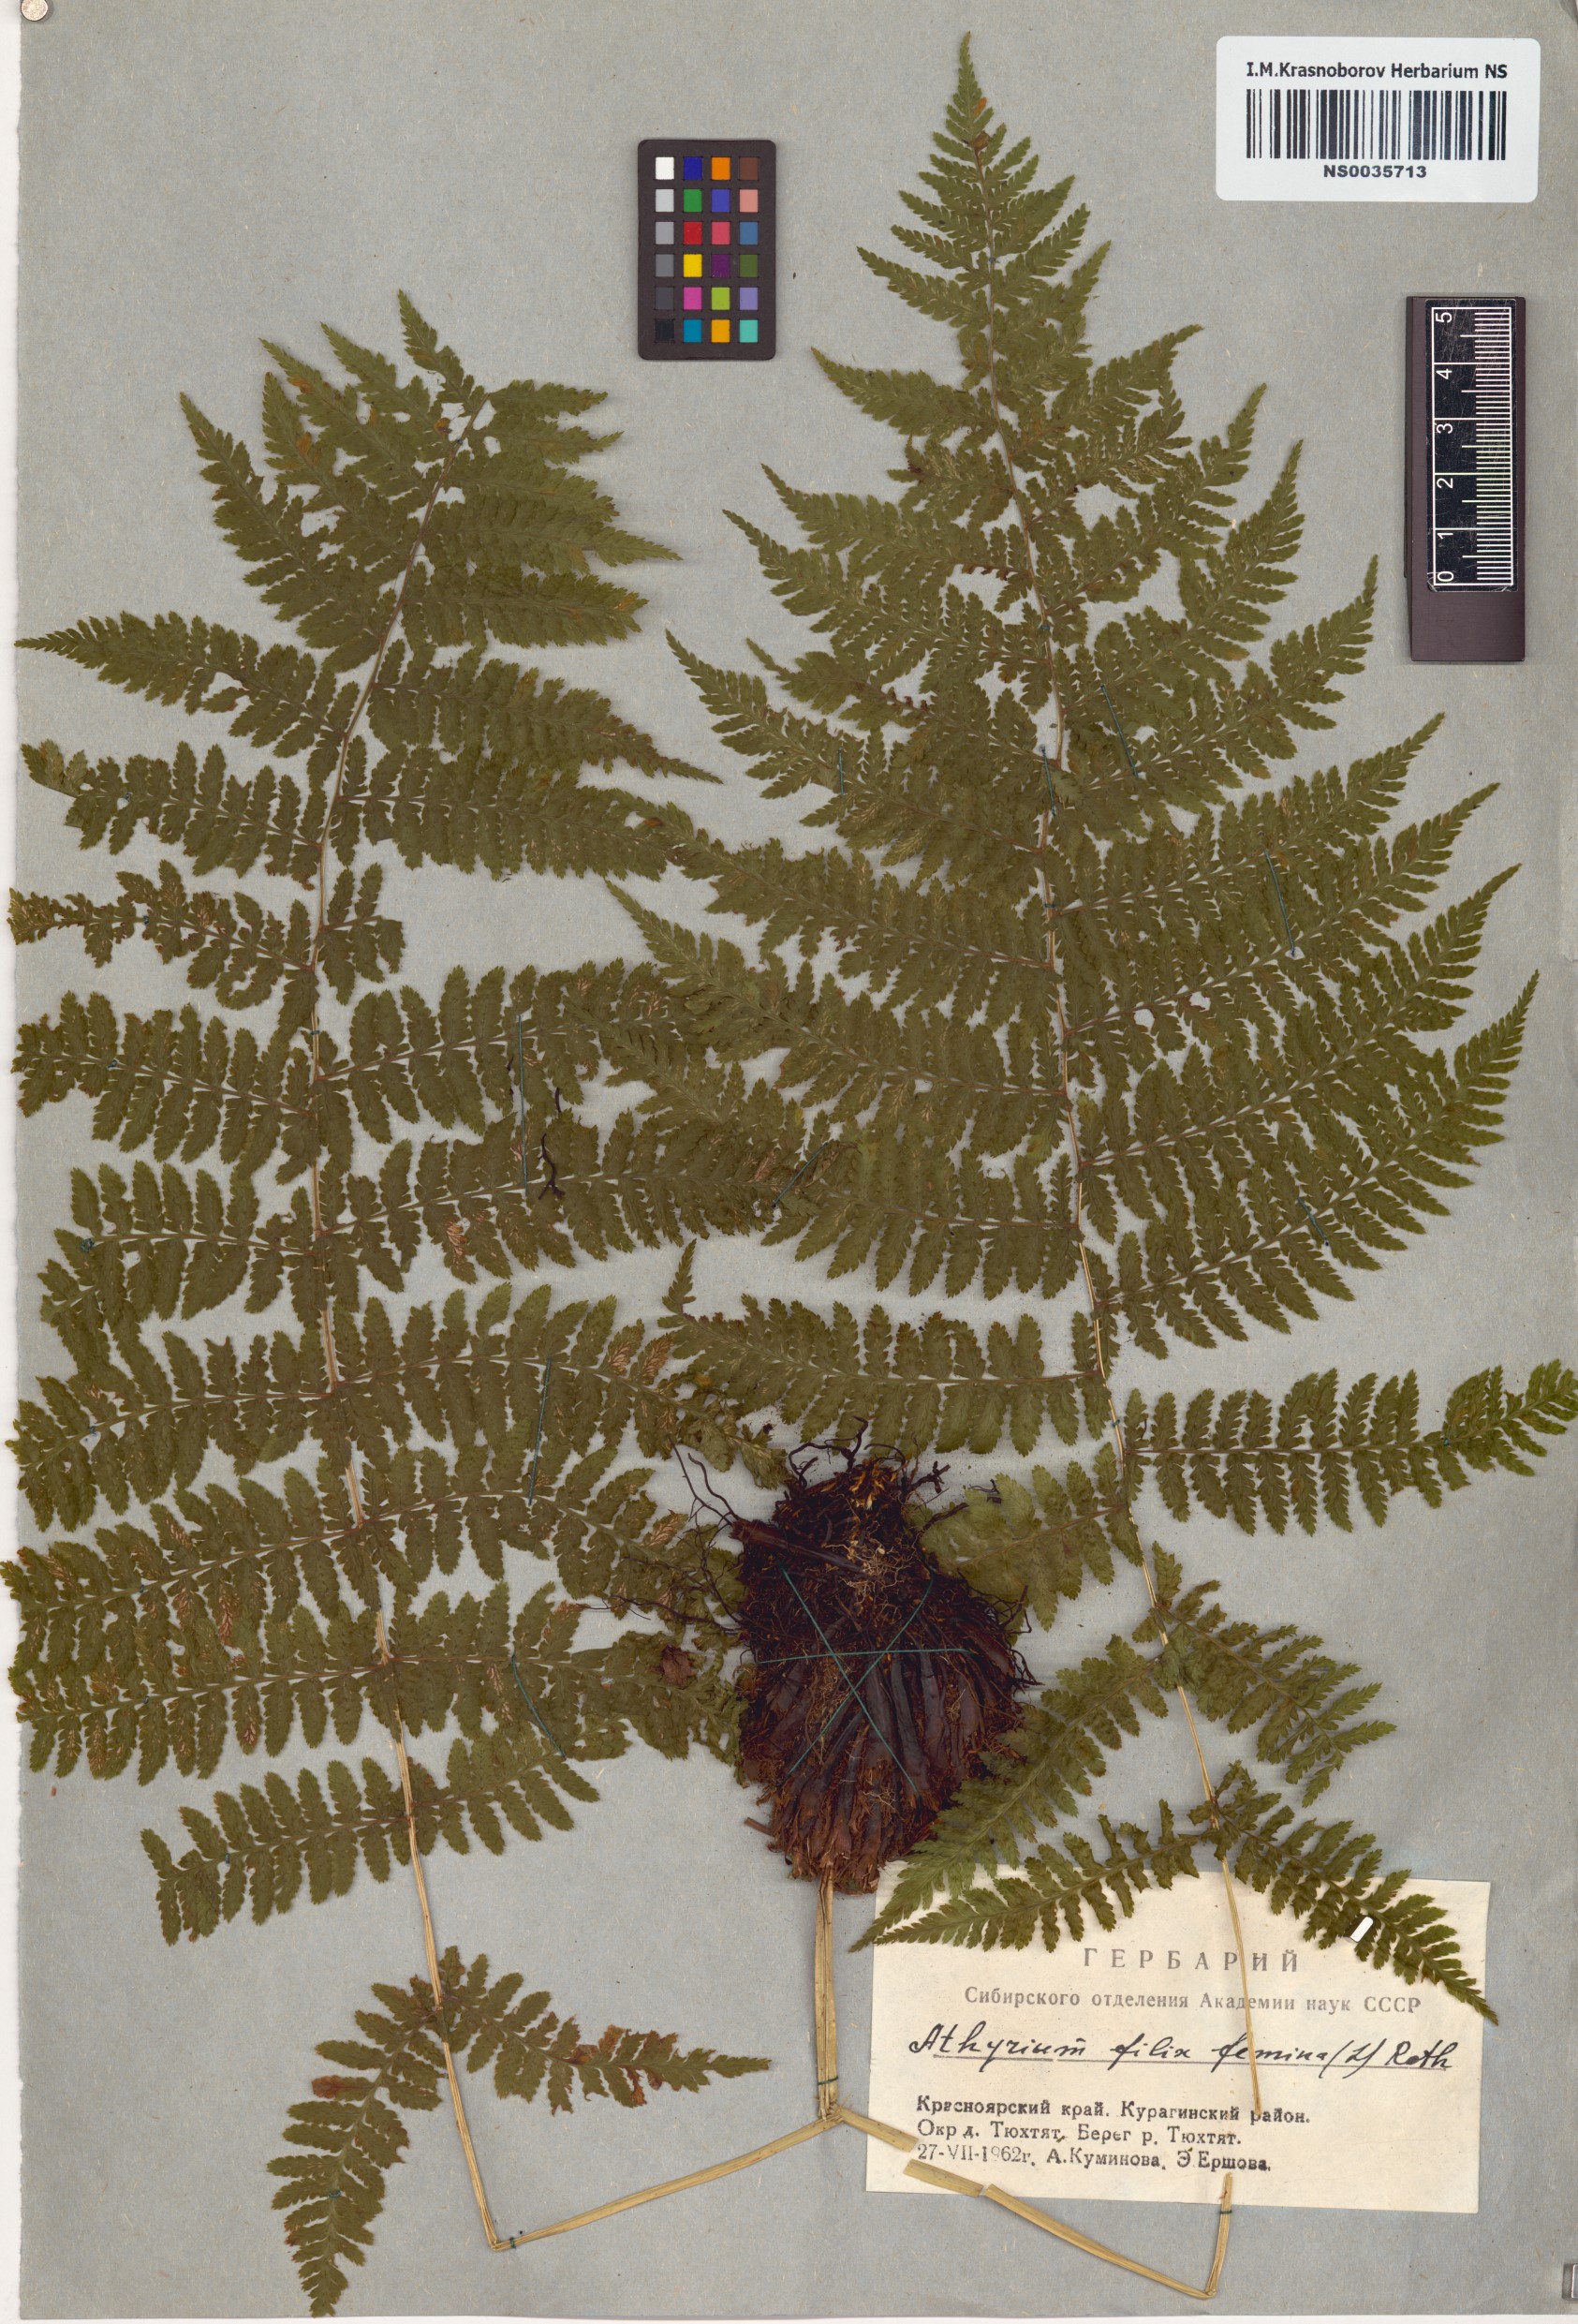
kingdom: Plantae
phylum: Tracheophyta
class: Polypodiopsida
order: Polypodiales
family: Athyriaceae
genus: Athyrium
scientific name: Athyrium filix-femina
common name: Lady fern
